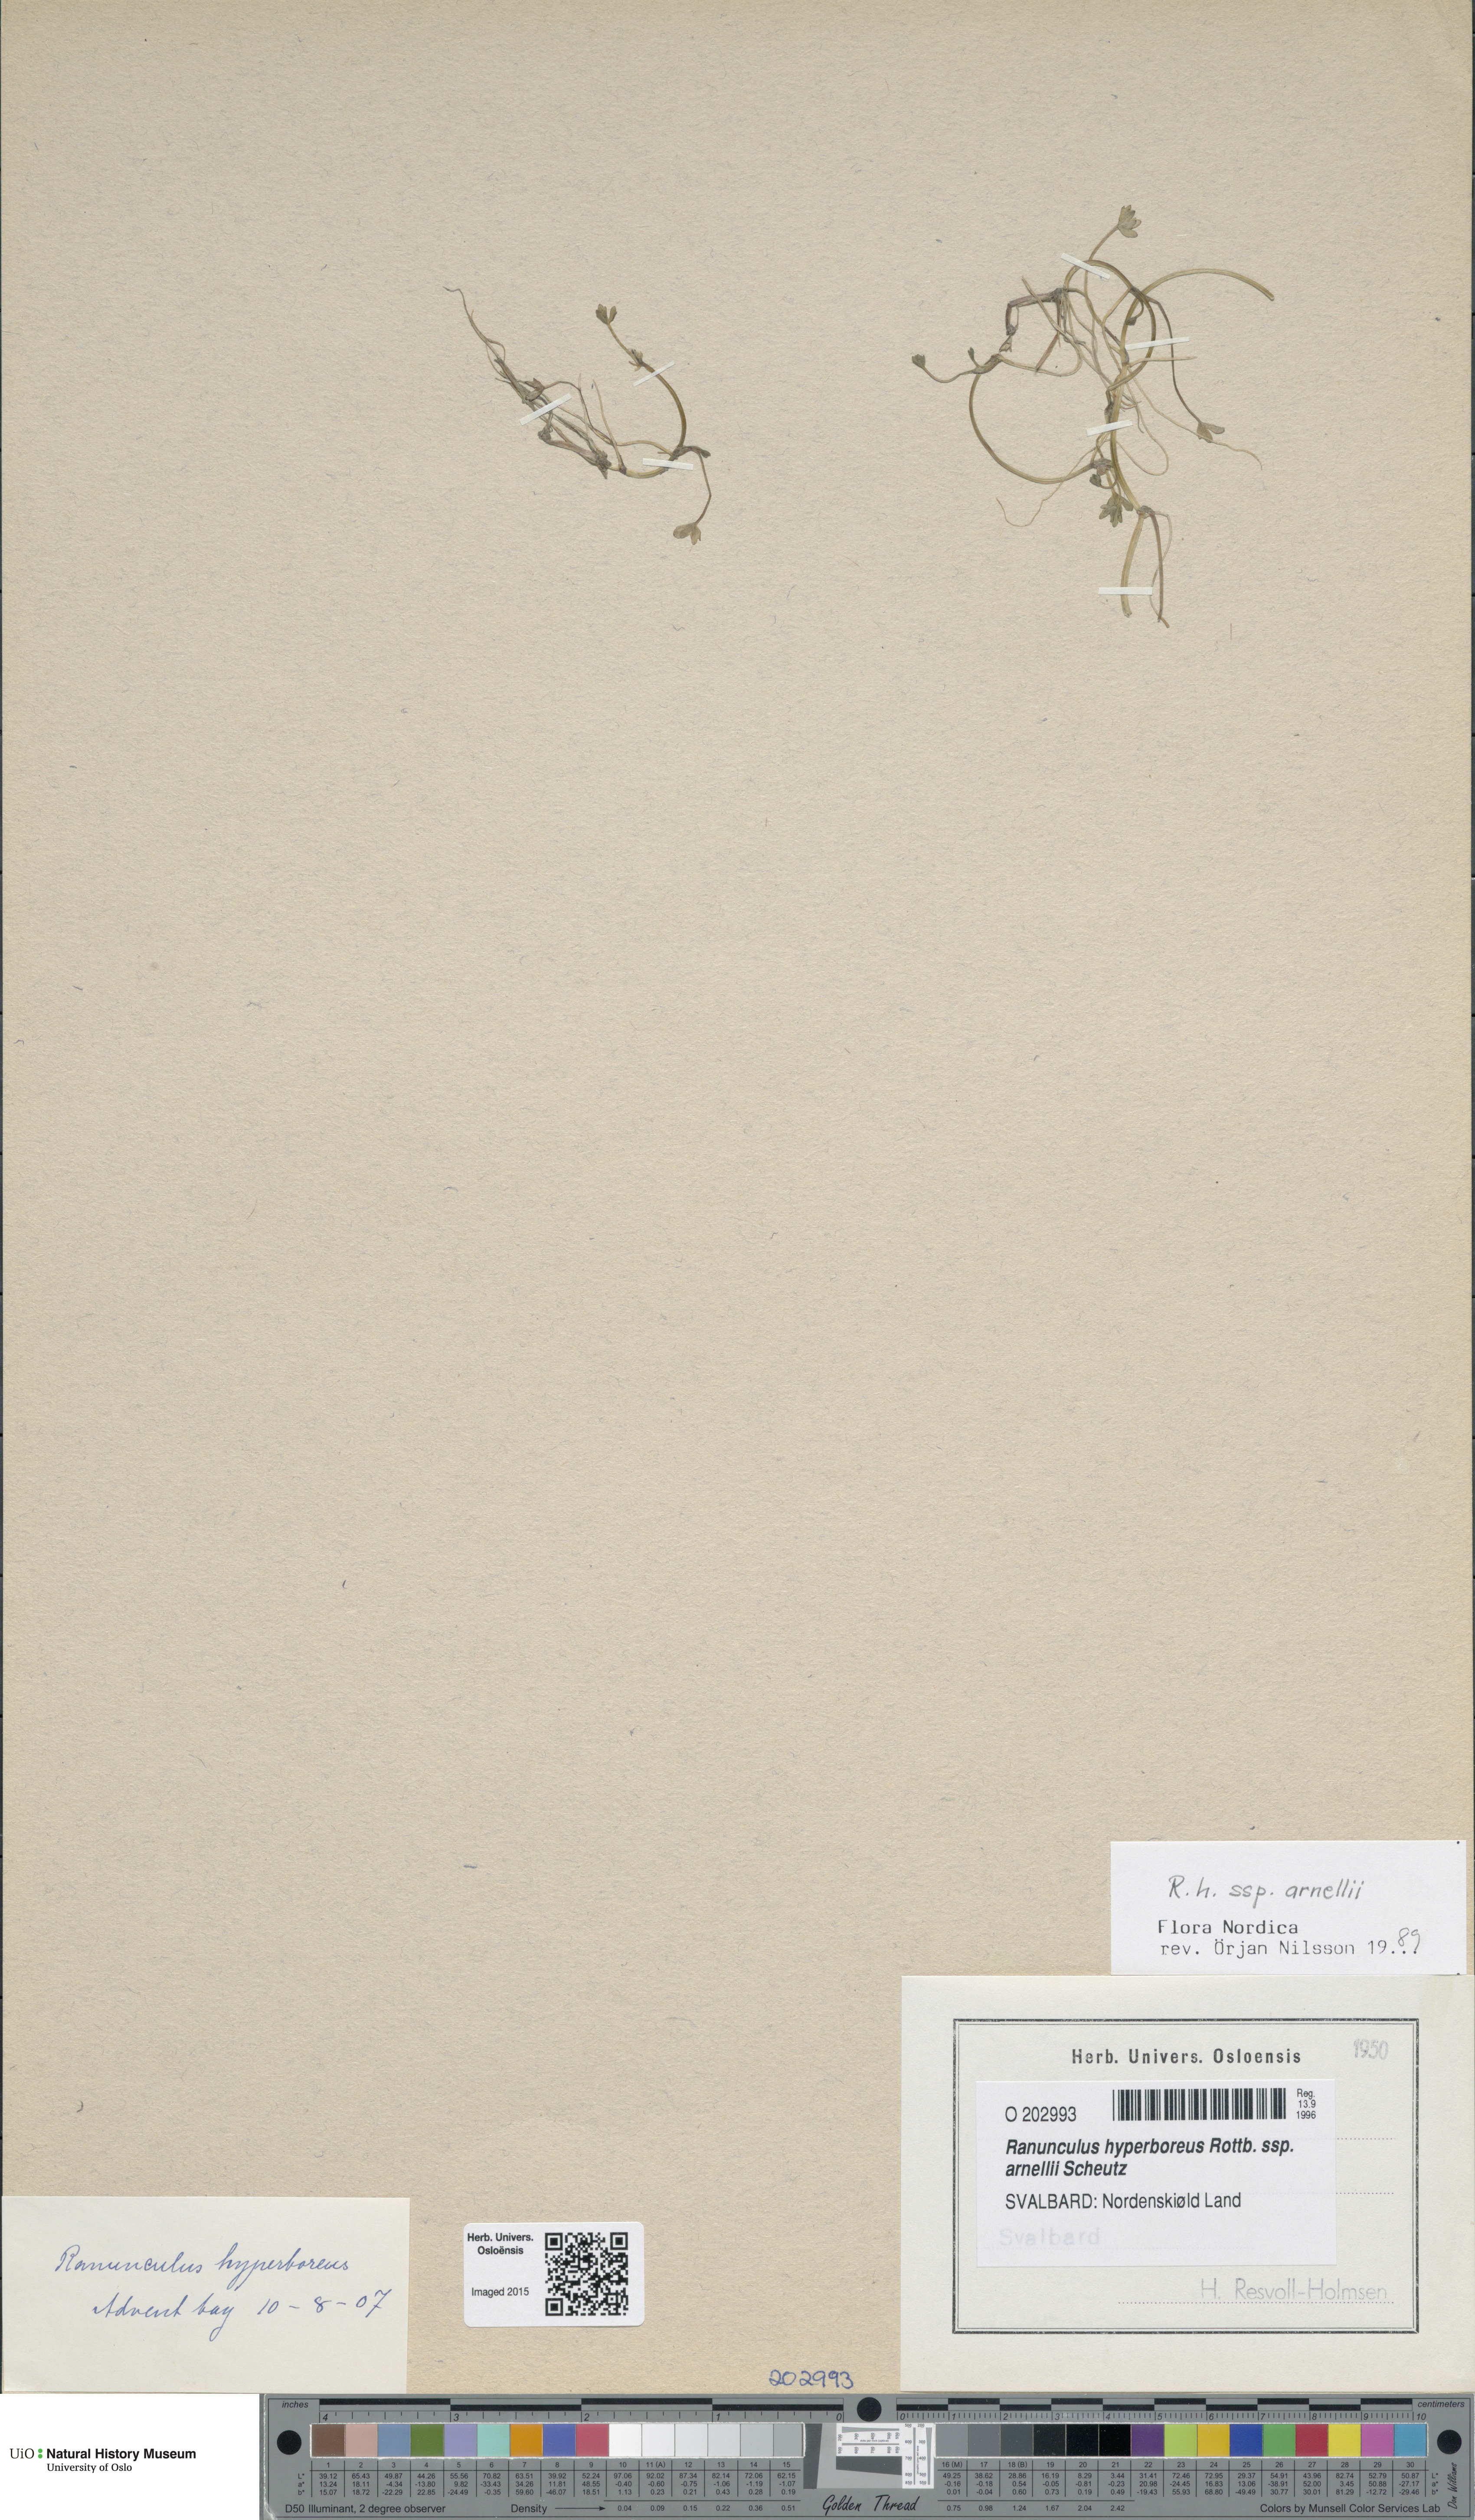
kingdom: Plantae
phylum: Tracheophyta
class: Magnoliopsida
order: Ranunculales
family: Ranunculaceae
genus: Ranunculus
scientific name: Ranunculus hyperboreus
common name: Arctic buttercup
